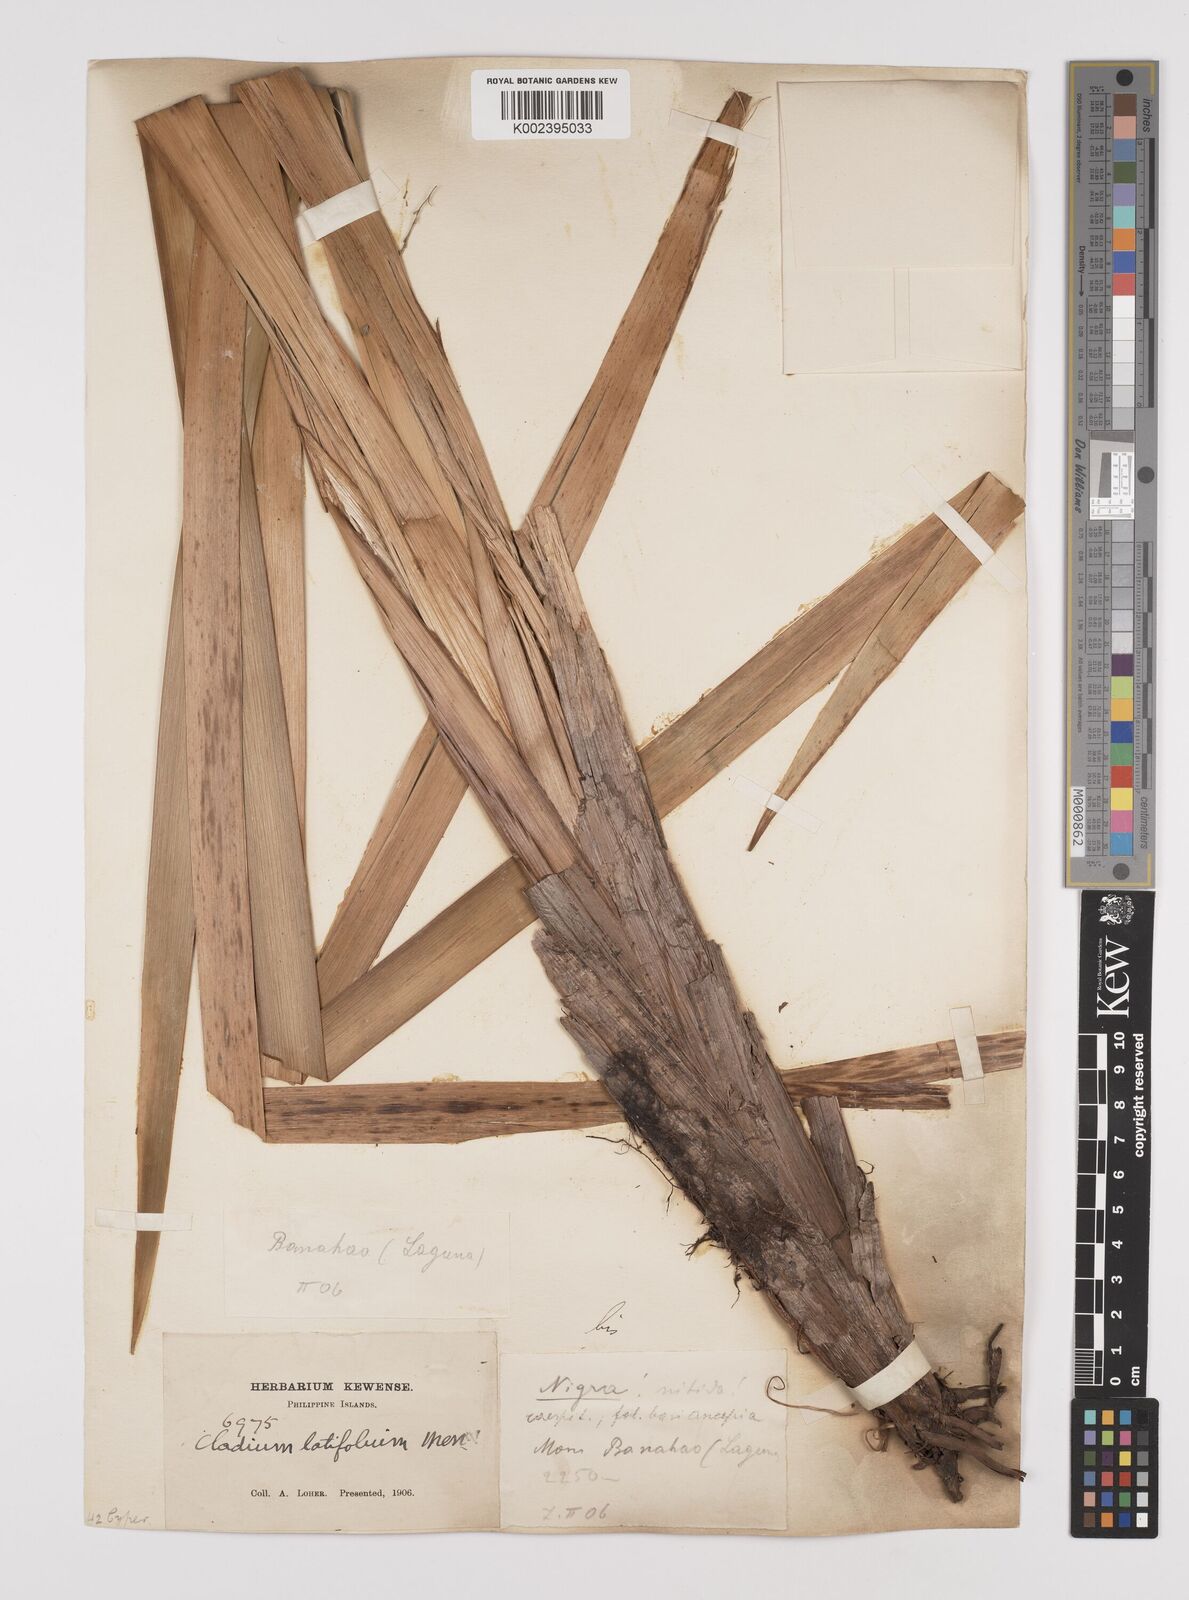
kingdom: Plantae
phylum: Tracheophyta
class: Liliopsida
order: Poales
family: Cyperaceae
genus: Machaerina
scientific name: Machaerina sinclairii
